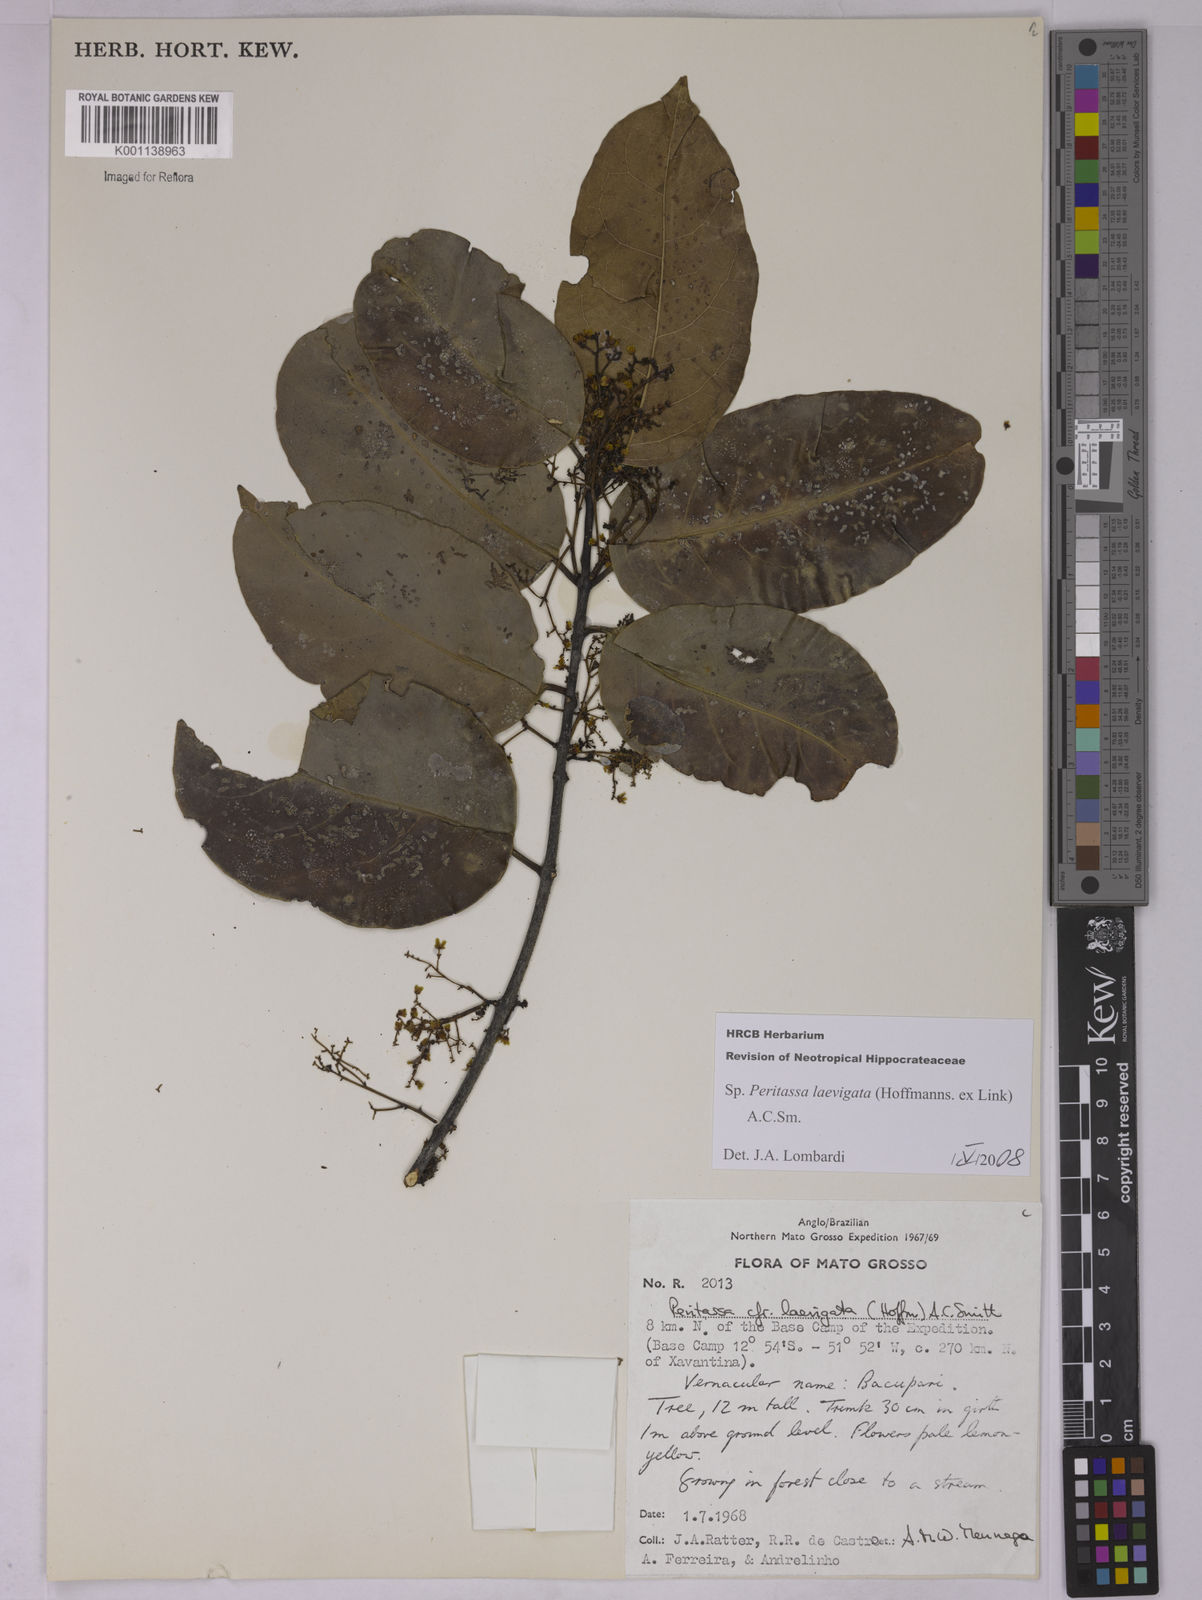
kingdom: Plantae
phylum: Tracheophyta
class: Magnoliopsida
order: Celastrales
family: Celastraceae
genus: Peritassa
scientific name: Peritassa laevigata
